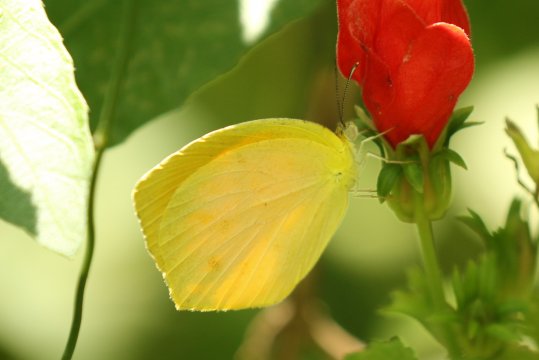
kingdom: Animalia
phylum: Arthropoda
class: Insecta
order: Lepidoptera
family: Pieridae
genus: Pyrisitia
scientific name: Pyrisitia proterpia
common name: Tailed Orange
